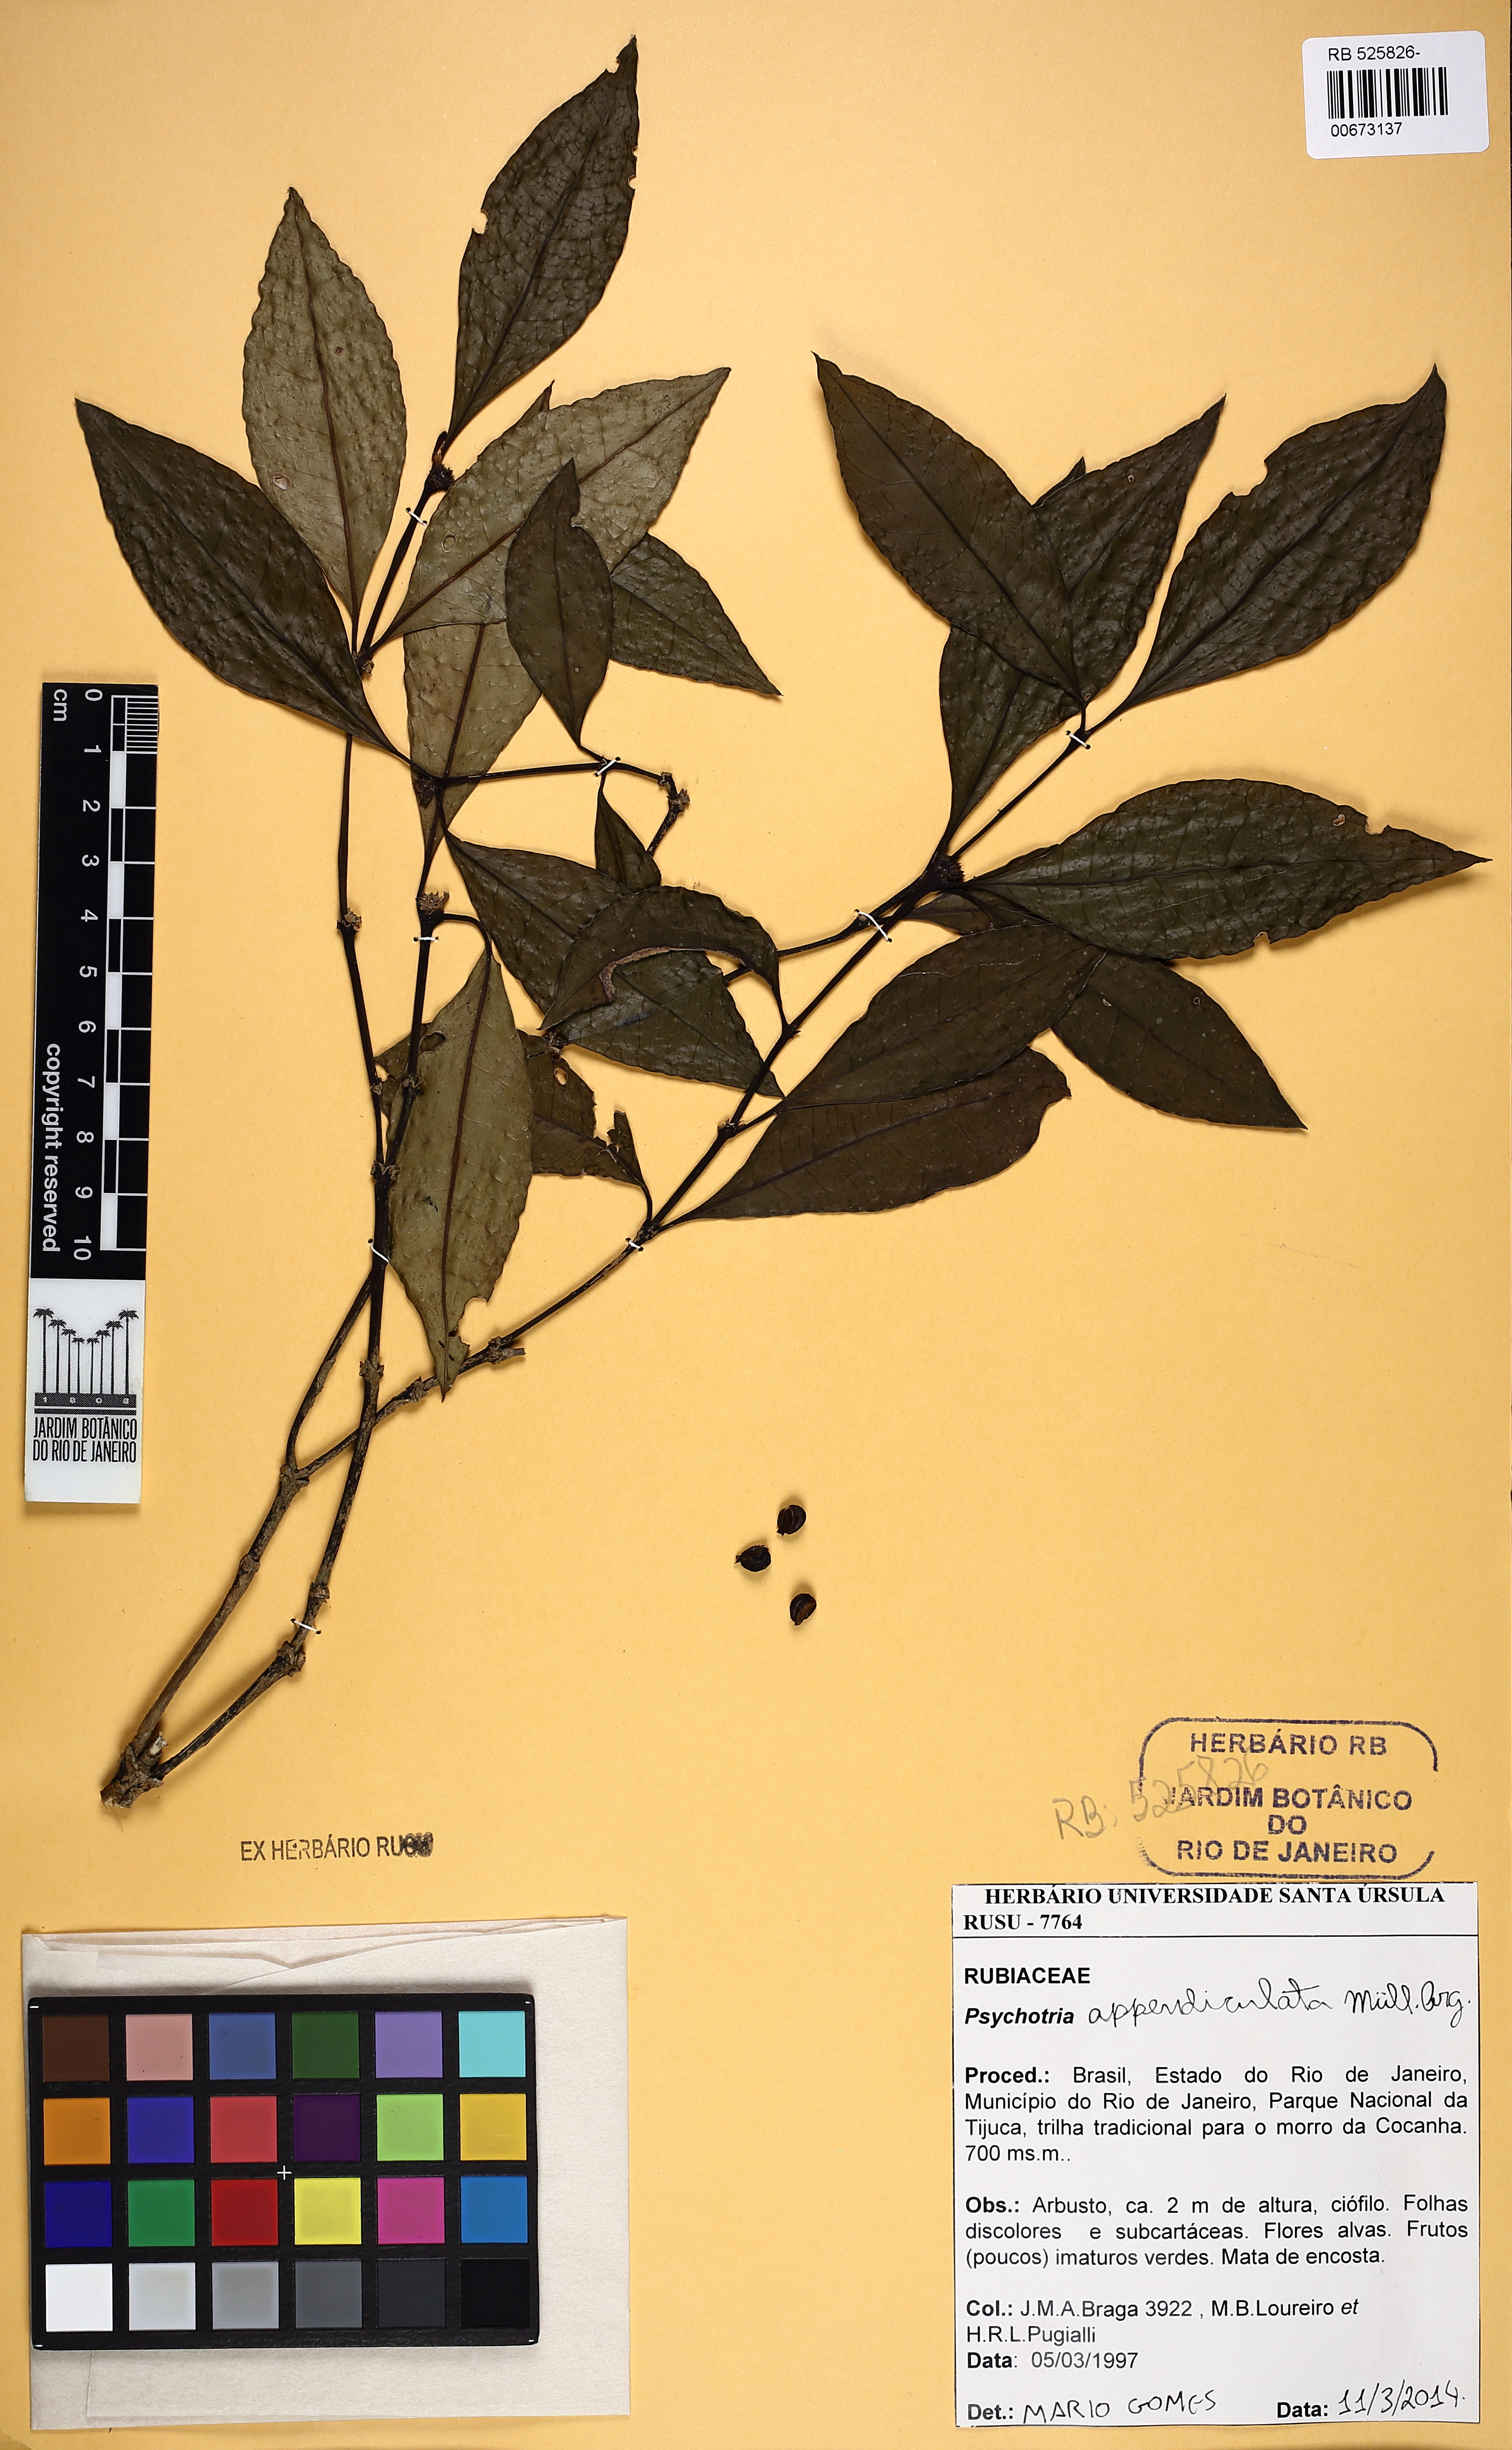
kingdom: Plantae
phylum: Tracheophyta
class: Magnoliopsida
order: Gentianales
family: Rubiaceae
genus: Psychotria
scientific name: Psychotria appendiculata
